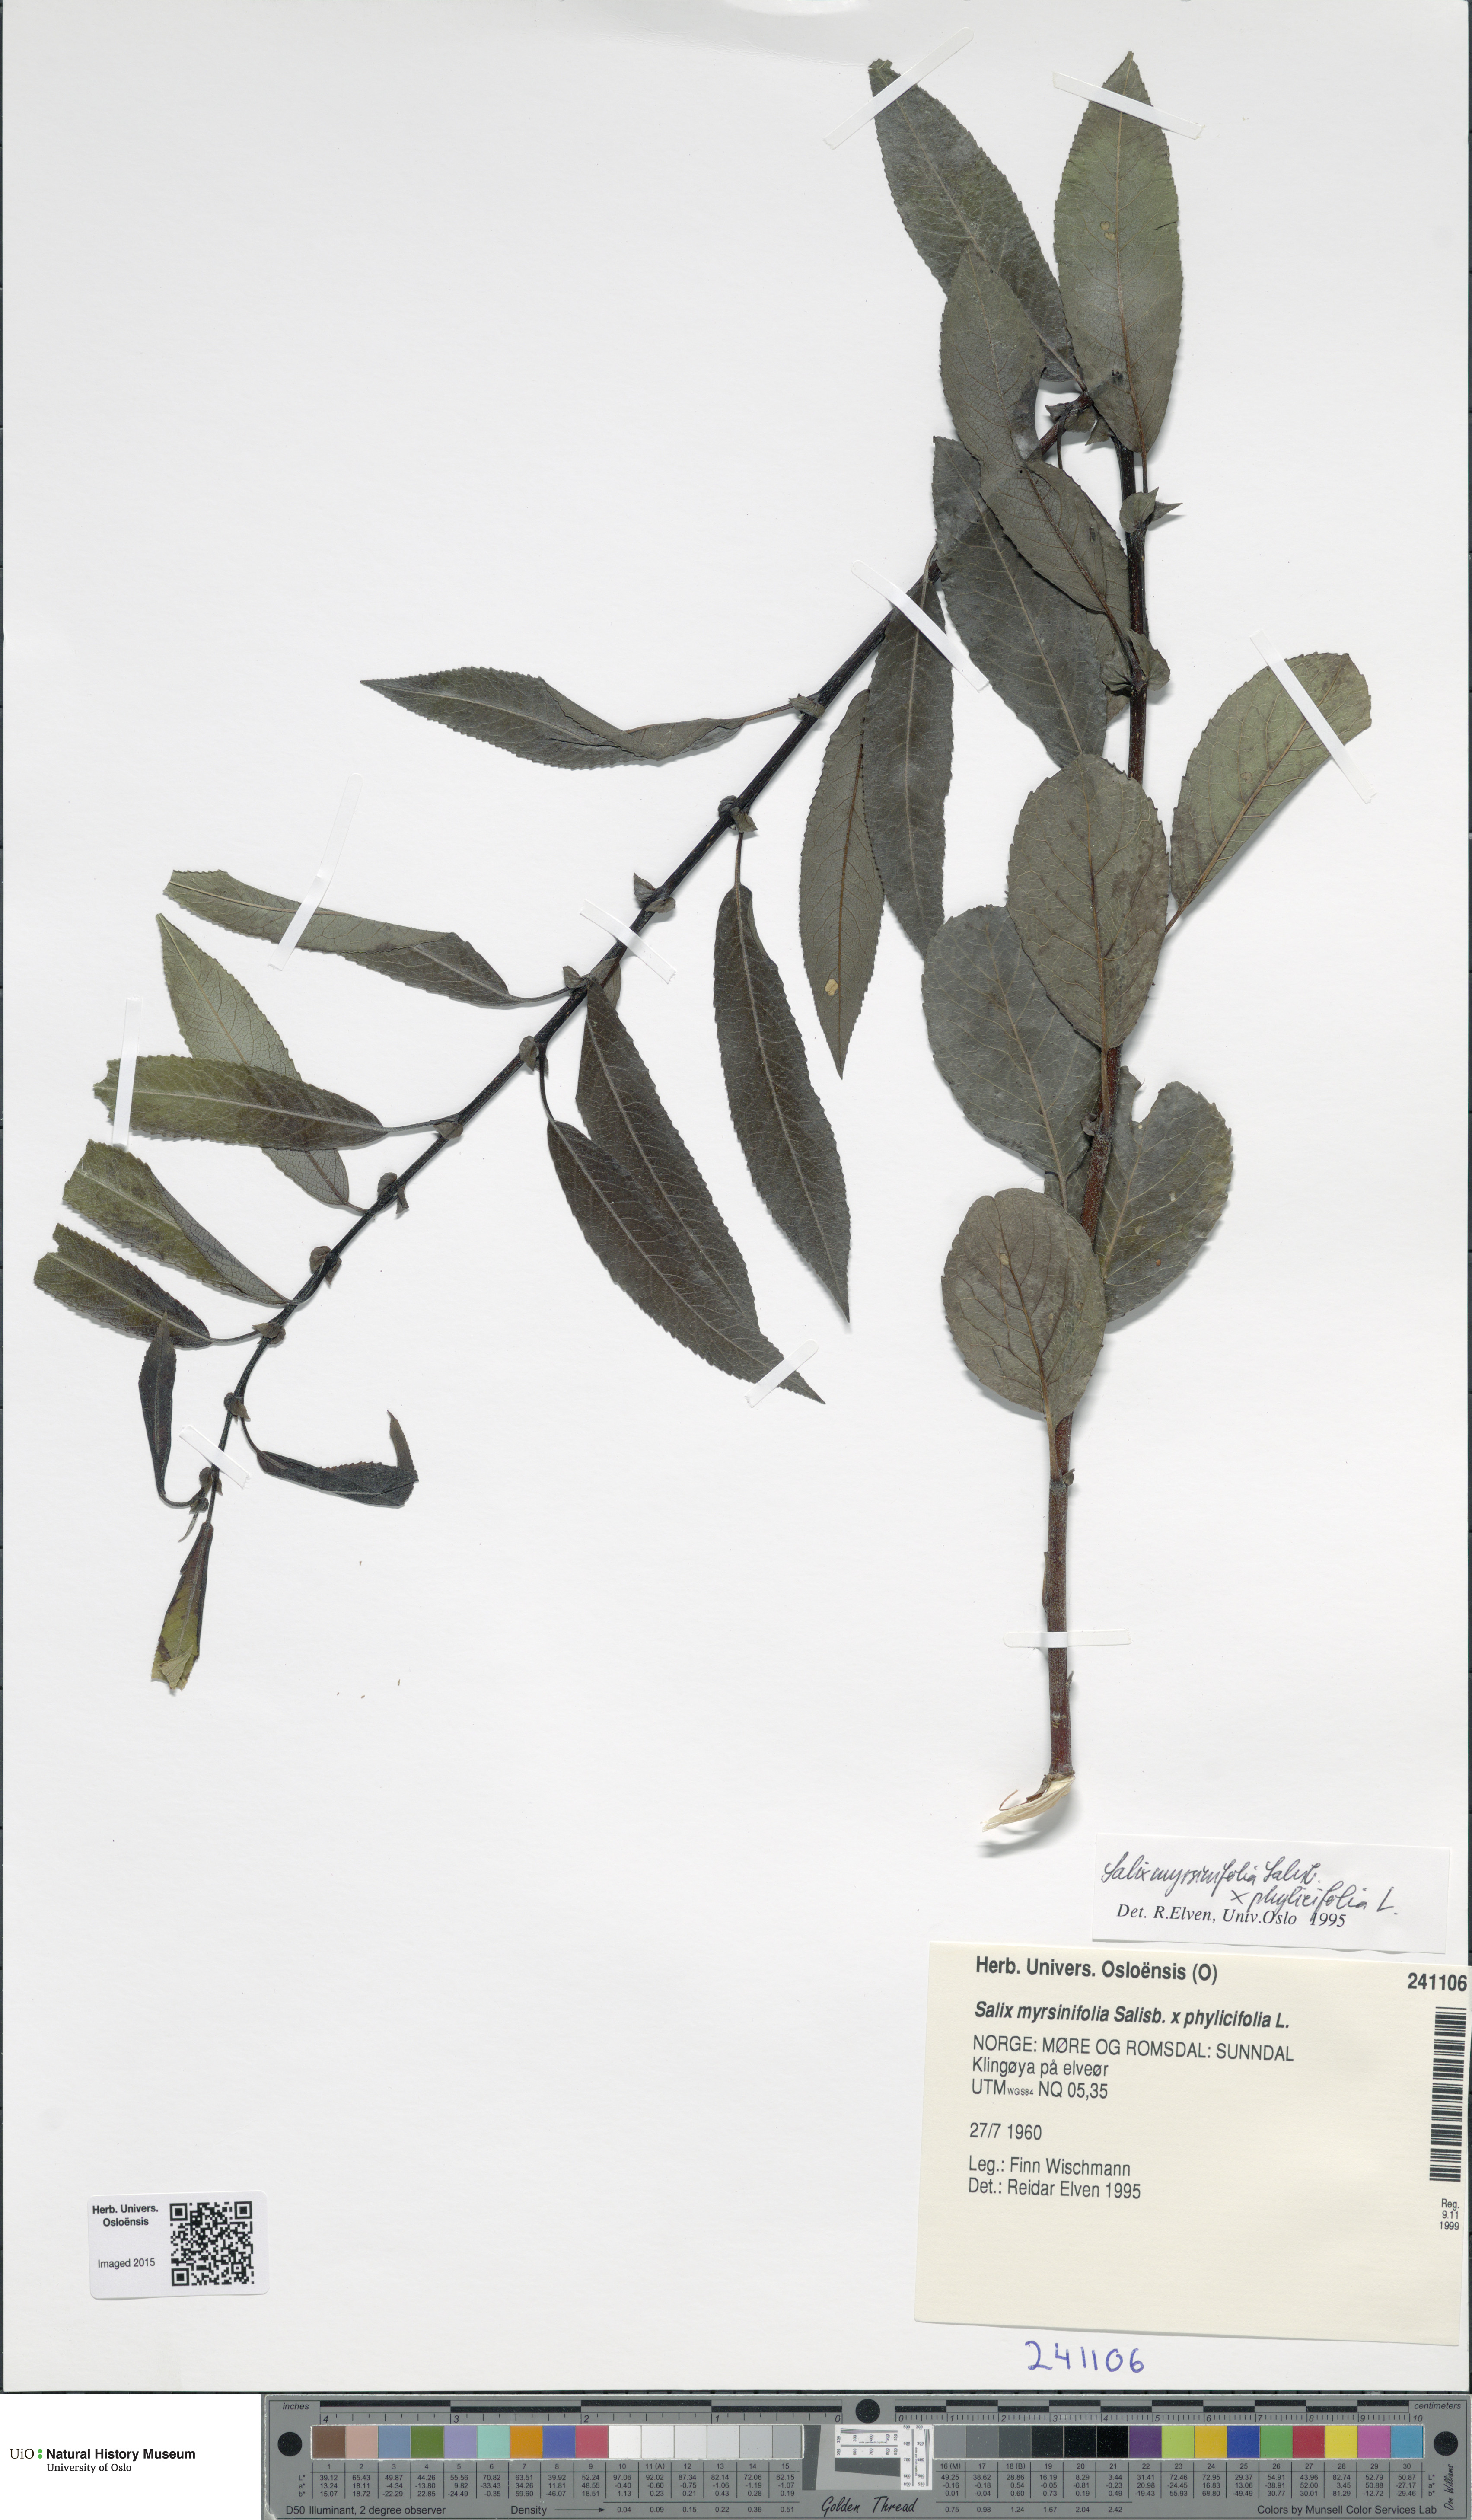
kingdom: Plantae
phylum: Tracheophyta
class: Magnoliopsida
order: Malpighiales
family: Salicaceae
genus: Salix
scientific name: Salix
